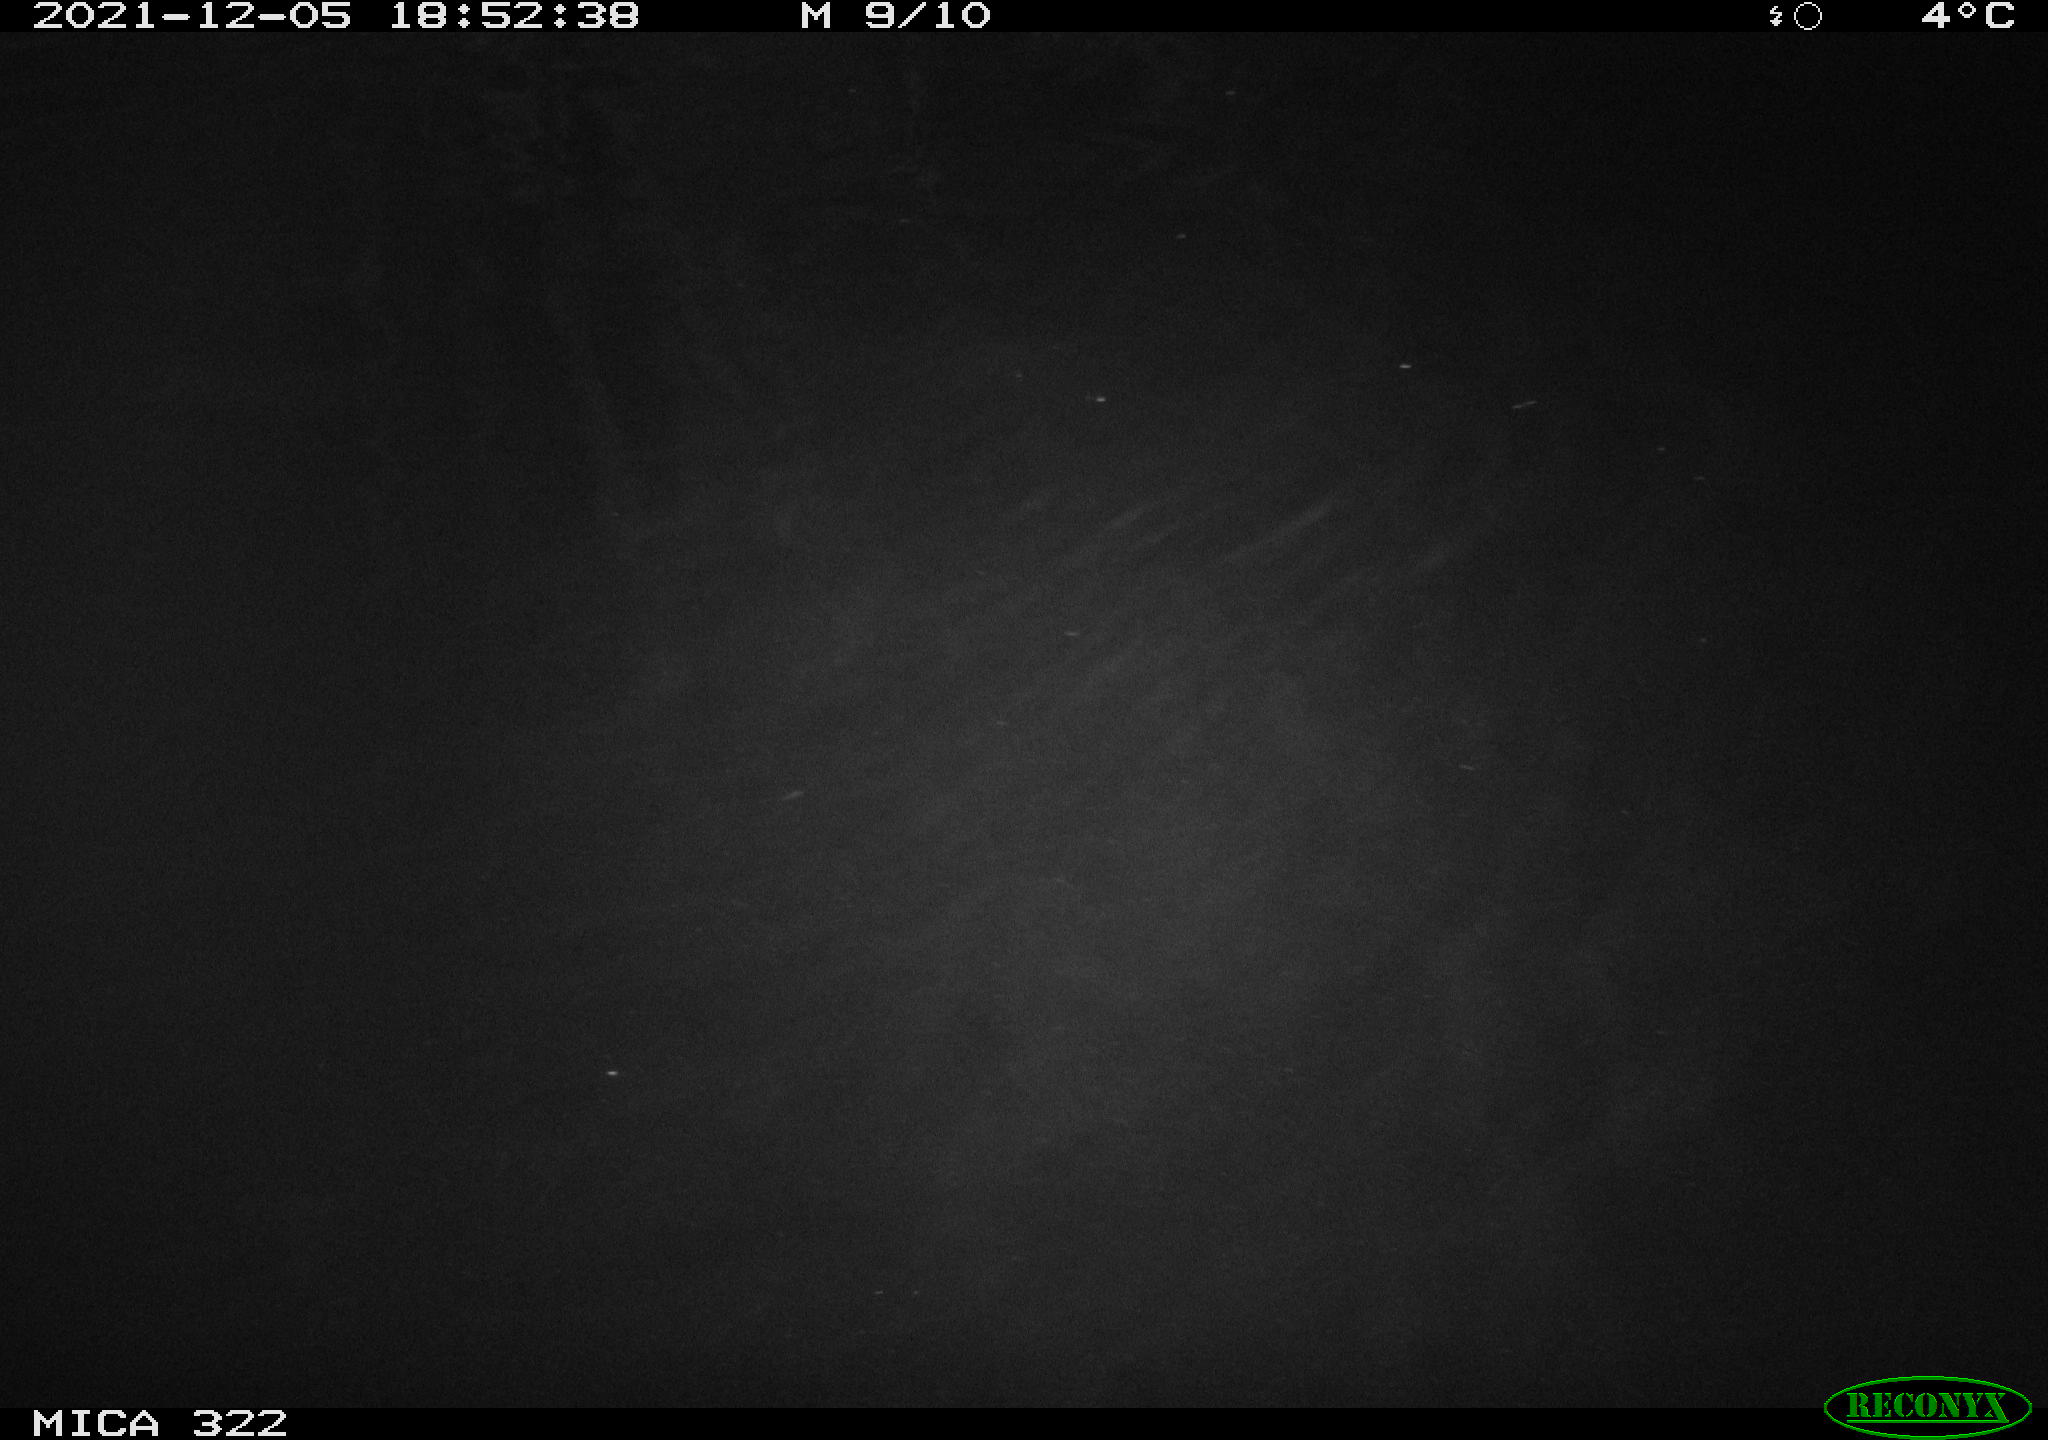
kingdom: Animalia
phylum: Chordata
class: Mammalia
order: Rodentia
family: Muridae
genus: Rattus
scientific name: Rattus norvegicus
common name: Brown rat
